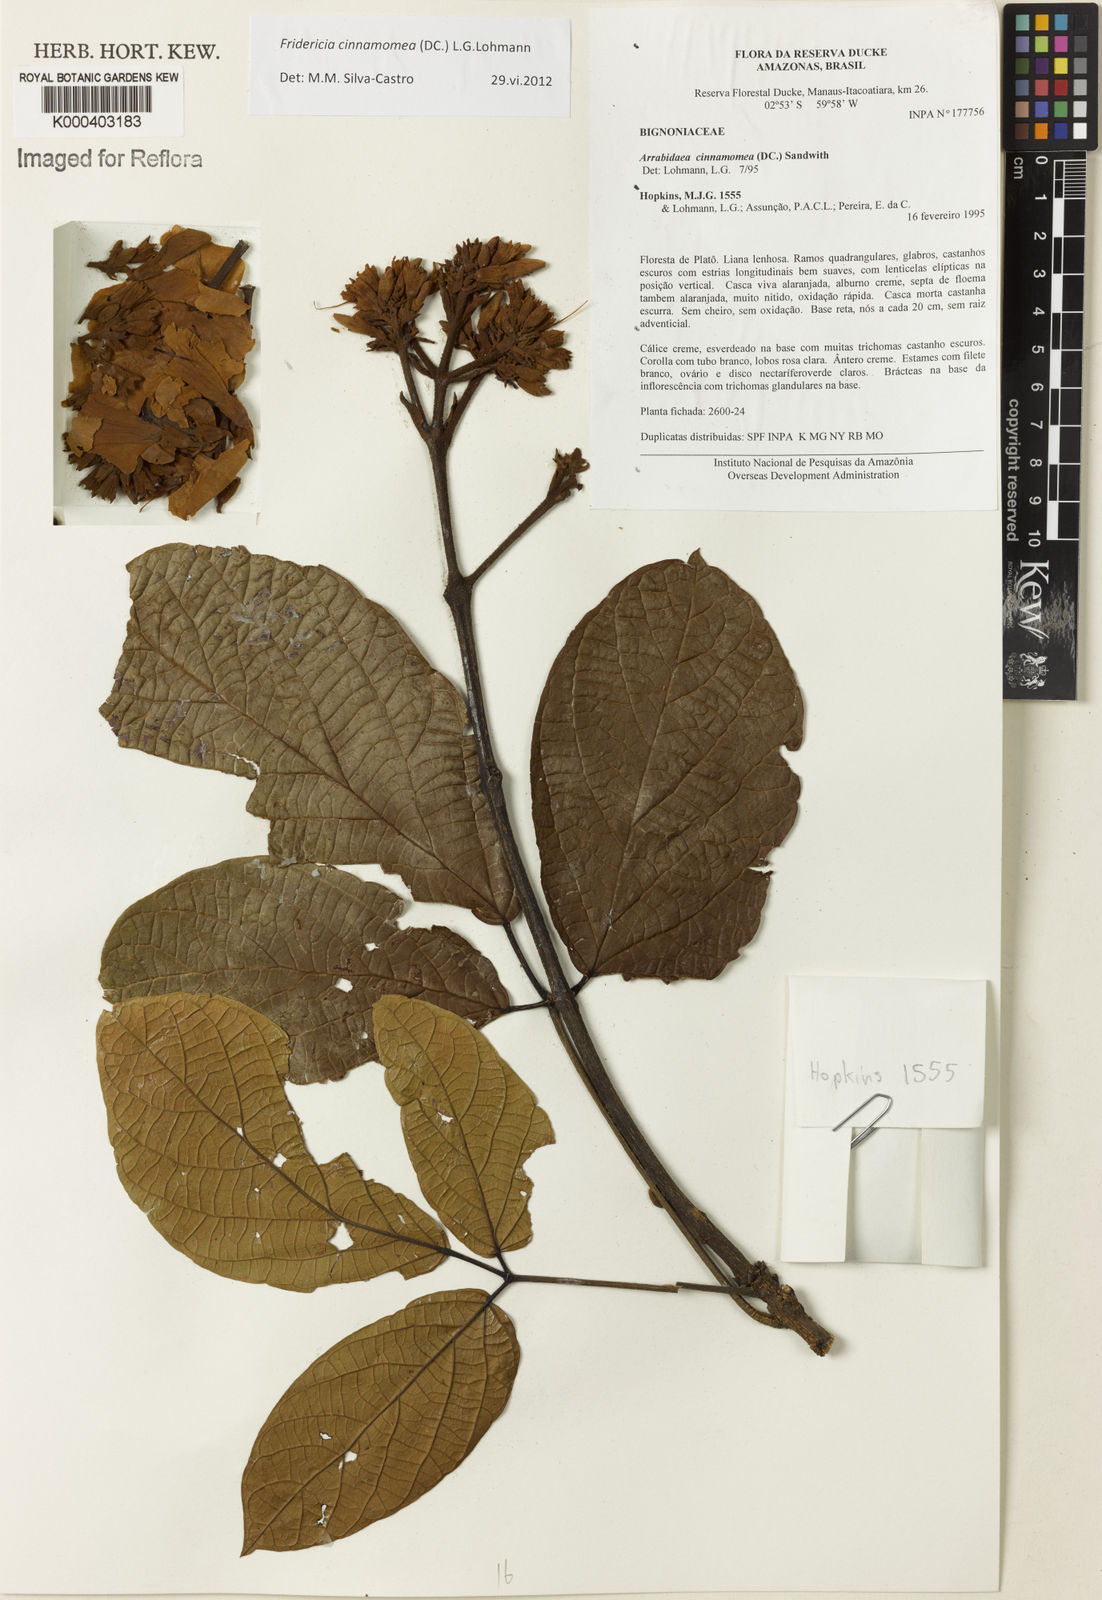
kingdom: Plantae
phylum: Tracheophyta
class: Magnoliopsida
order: Lamiales
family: Bignoniaceae
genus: Fridericia
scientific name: Fridericia cinnamomea
